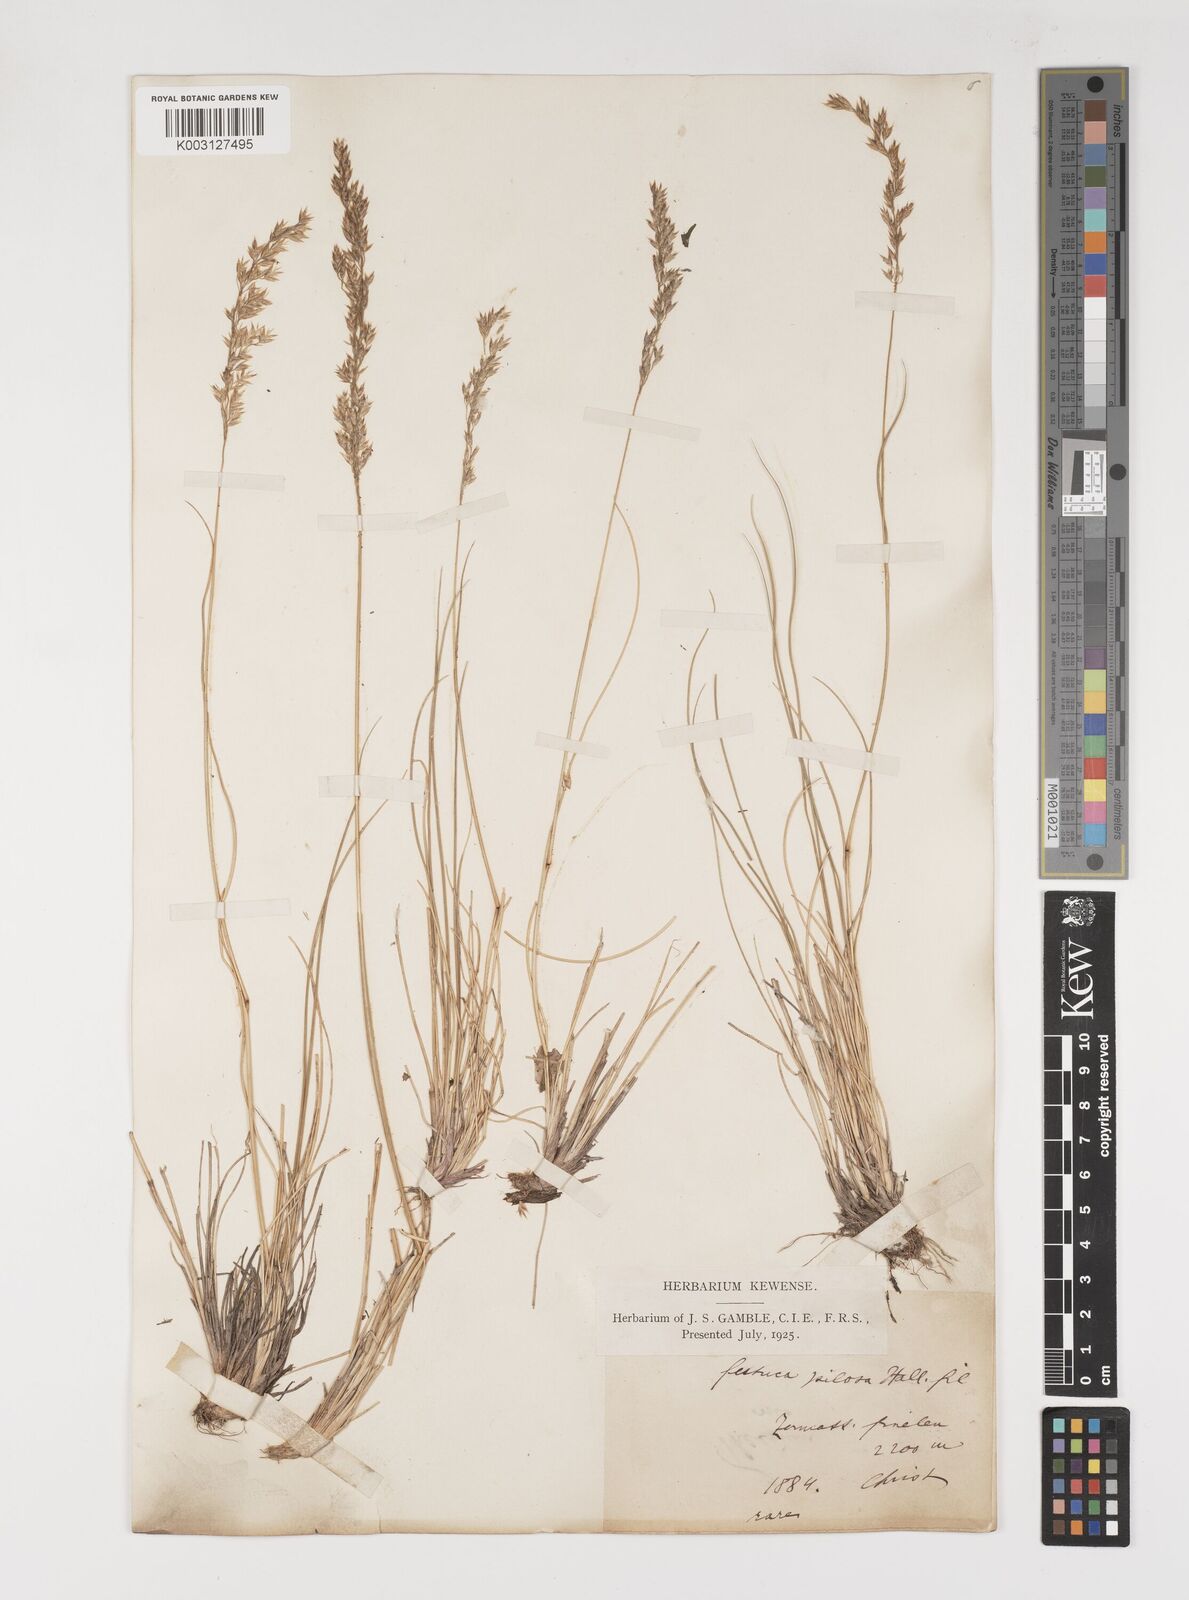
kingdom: Plantae
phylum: Tracheophyta
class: Liliopsida
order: Poales
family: Poaceae
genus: Bellardiochloa
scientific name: Bellardiochloa variegata
